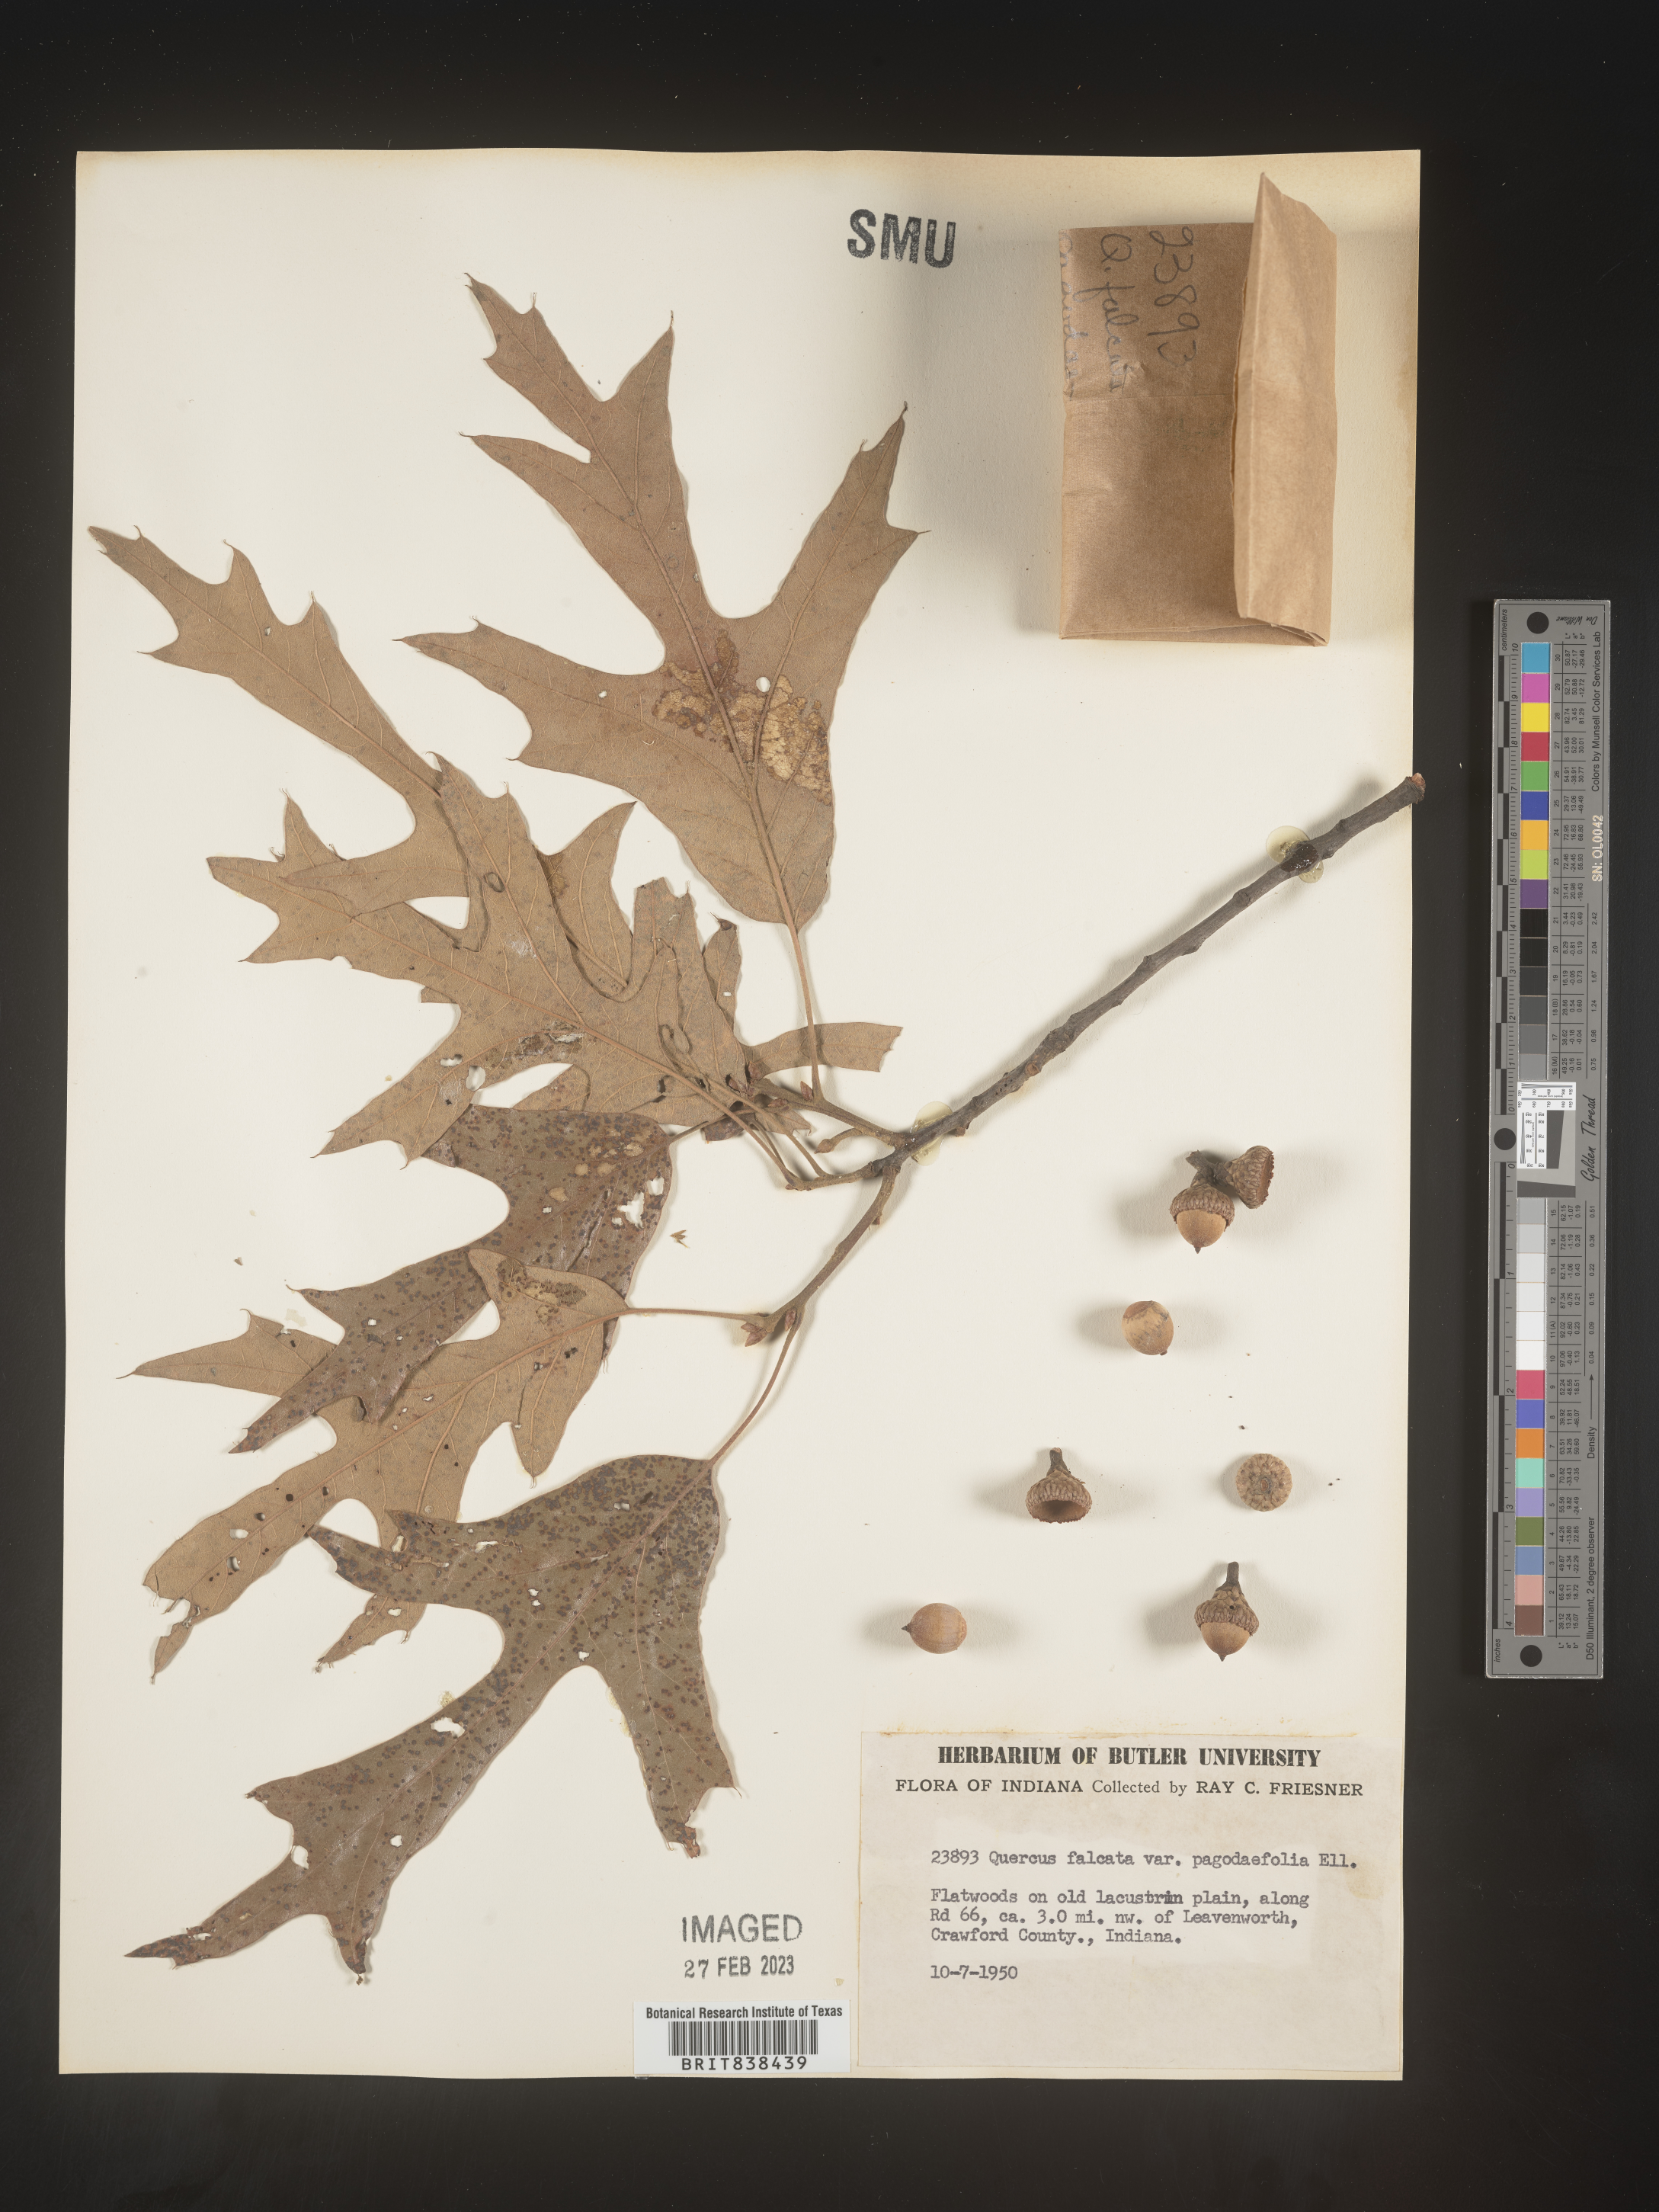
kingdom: Plantae
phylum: Tracheophyta
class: Magnoliopsida
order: Fagales
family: Fagaceae
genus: Quercus
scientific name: Quercus falcata
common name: Southern red oak
